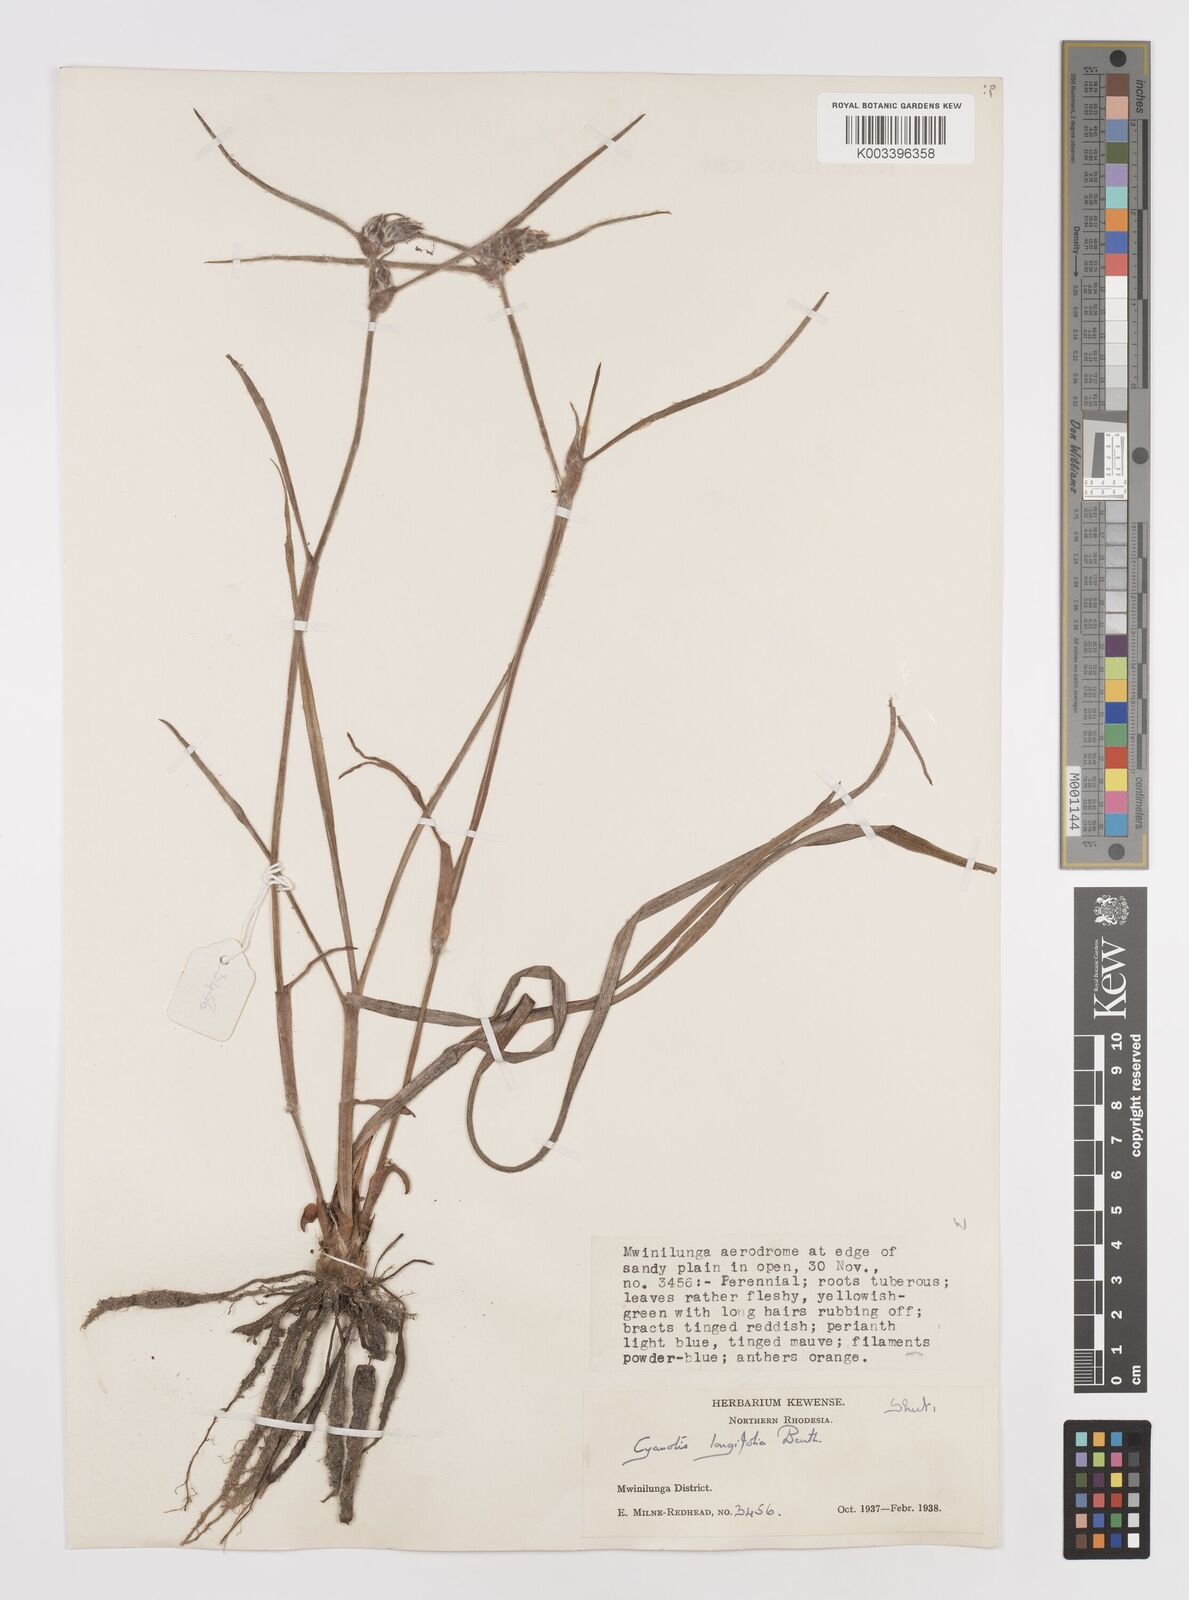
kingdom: Plantae
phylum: Tracheophyta
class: Liliopsida
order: Commelinales
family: Commelinaceae
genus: Cyanotis
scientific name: Cyanotis longifolia
